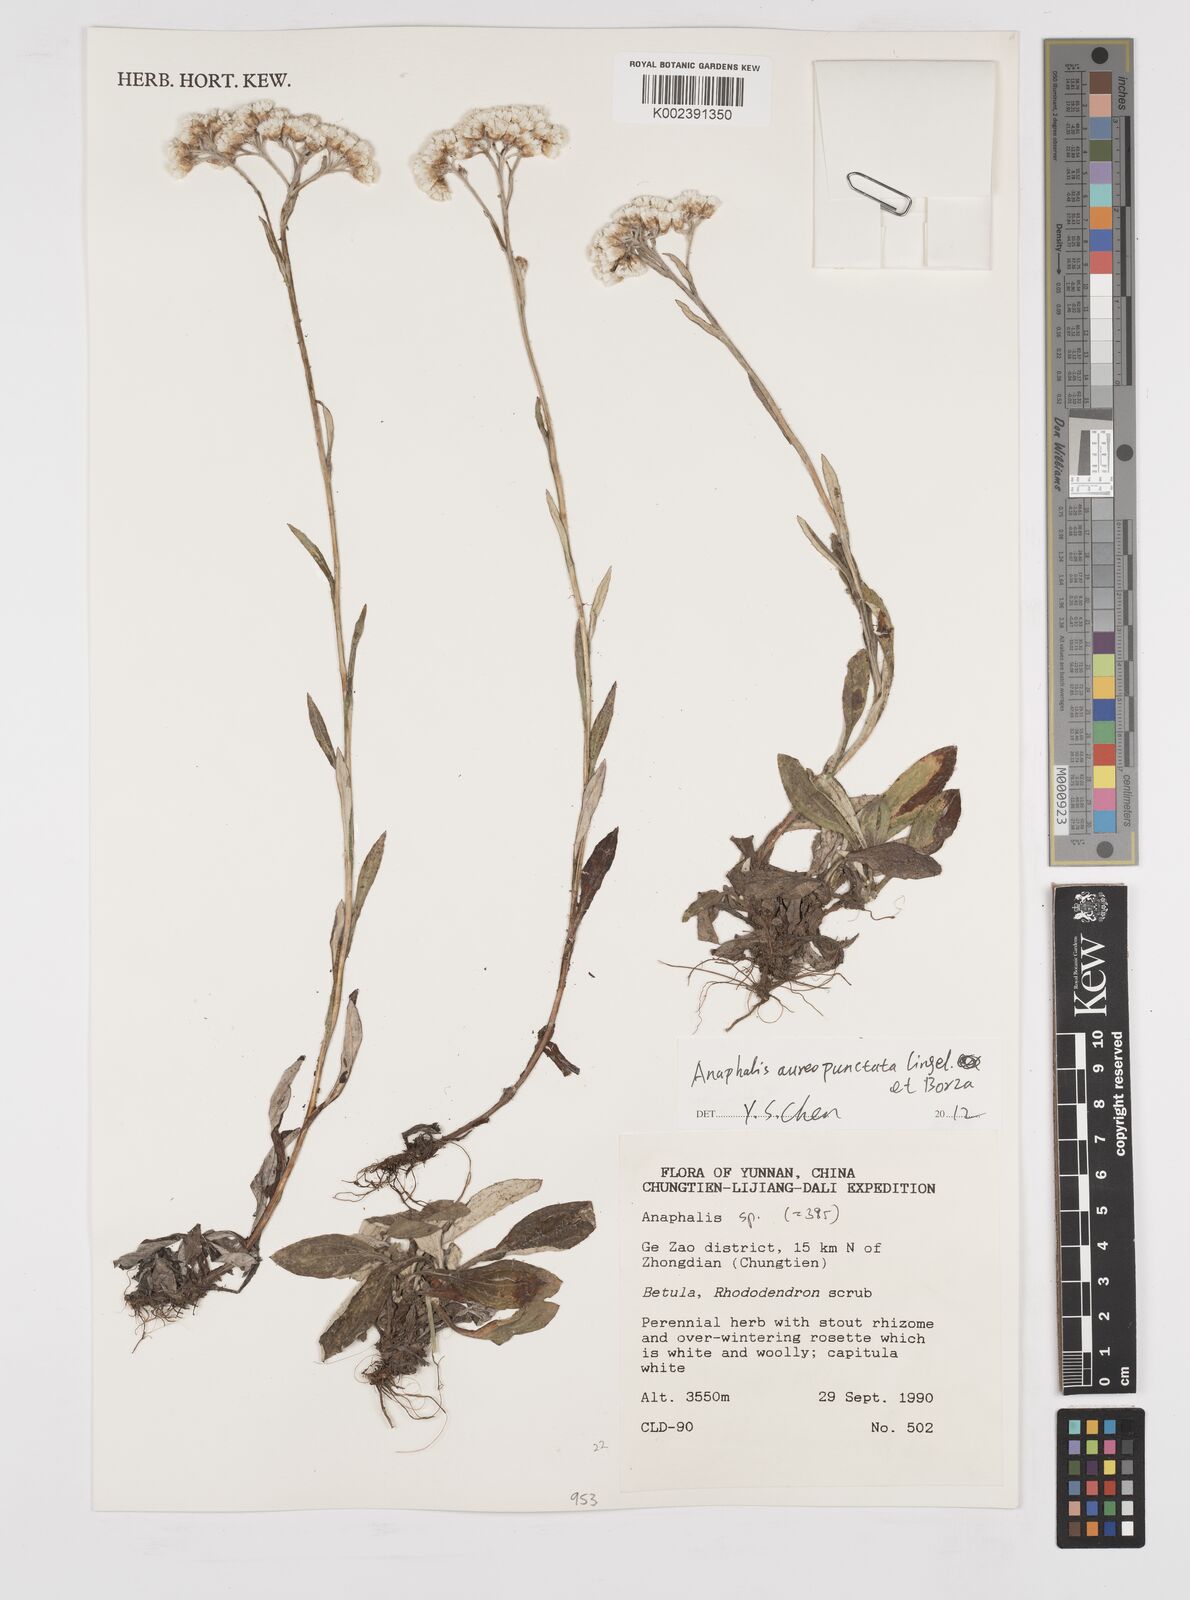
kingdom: Plantae
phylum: Tracheophyta
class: Magnoliopsida
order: Asterales
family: Asteraceae
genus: Anaphalis
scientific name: Anaphalis aureopunctata
